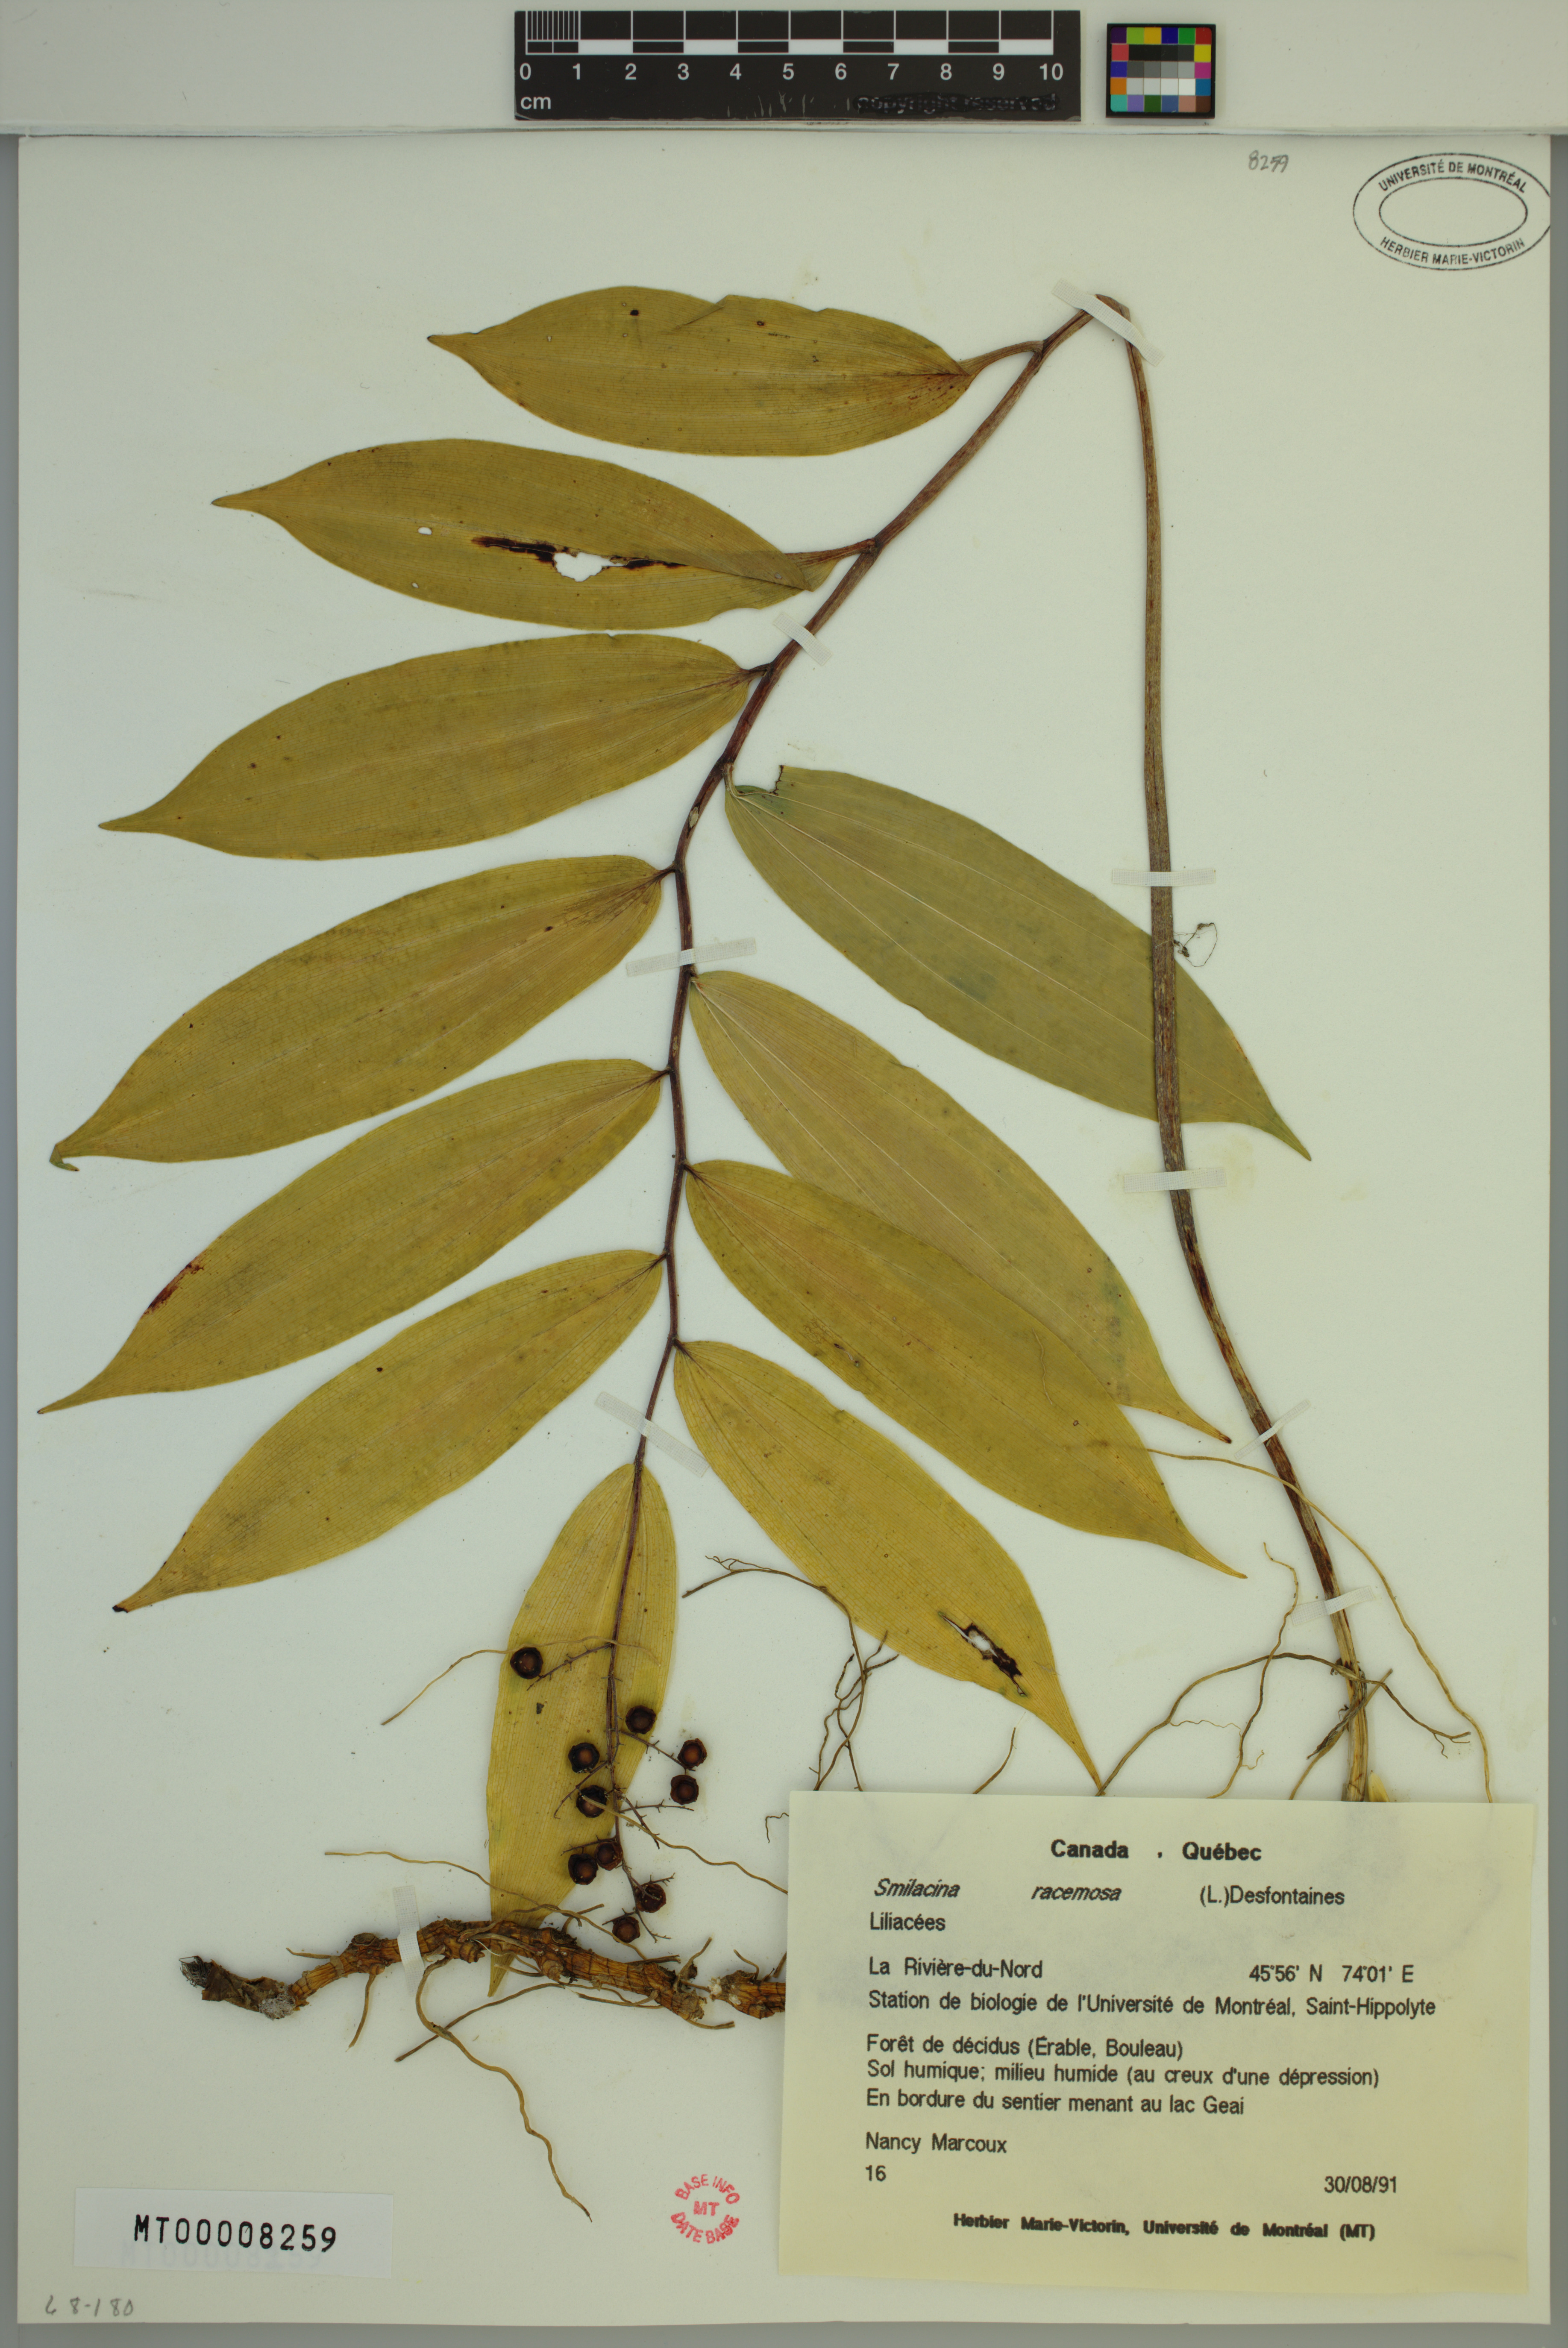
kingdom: Plantae
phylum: Tracheophyta
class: Liliopsida
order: Asparagales
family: Asparagaceae
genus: Maianthemum
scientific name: Maianthemum racemosum
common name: False spikenard
